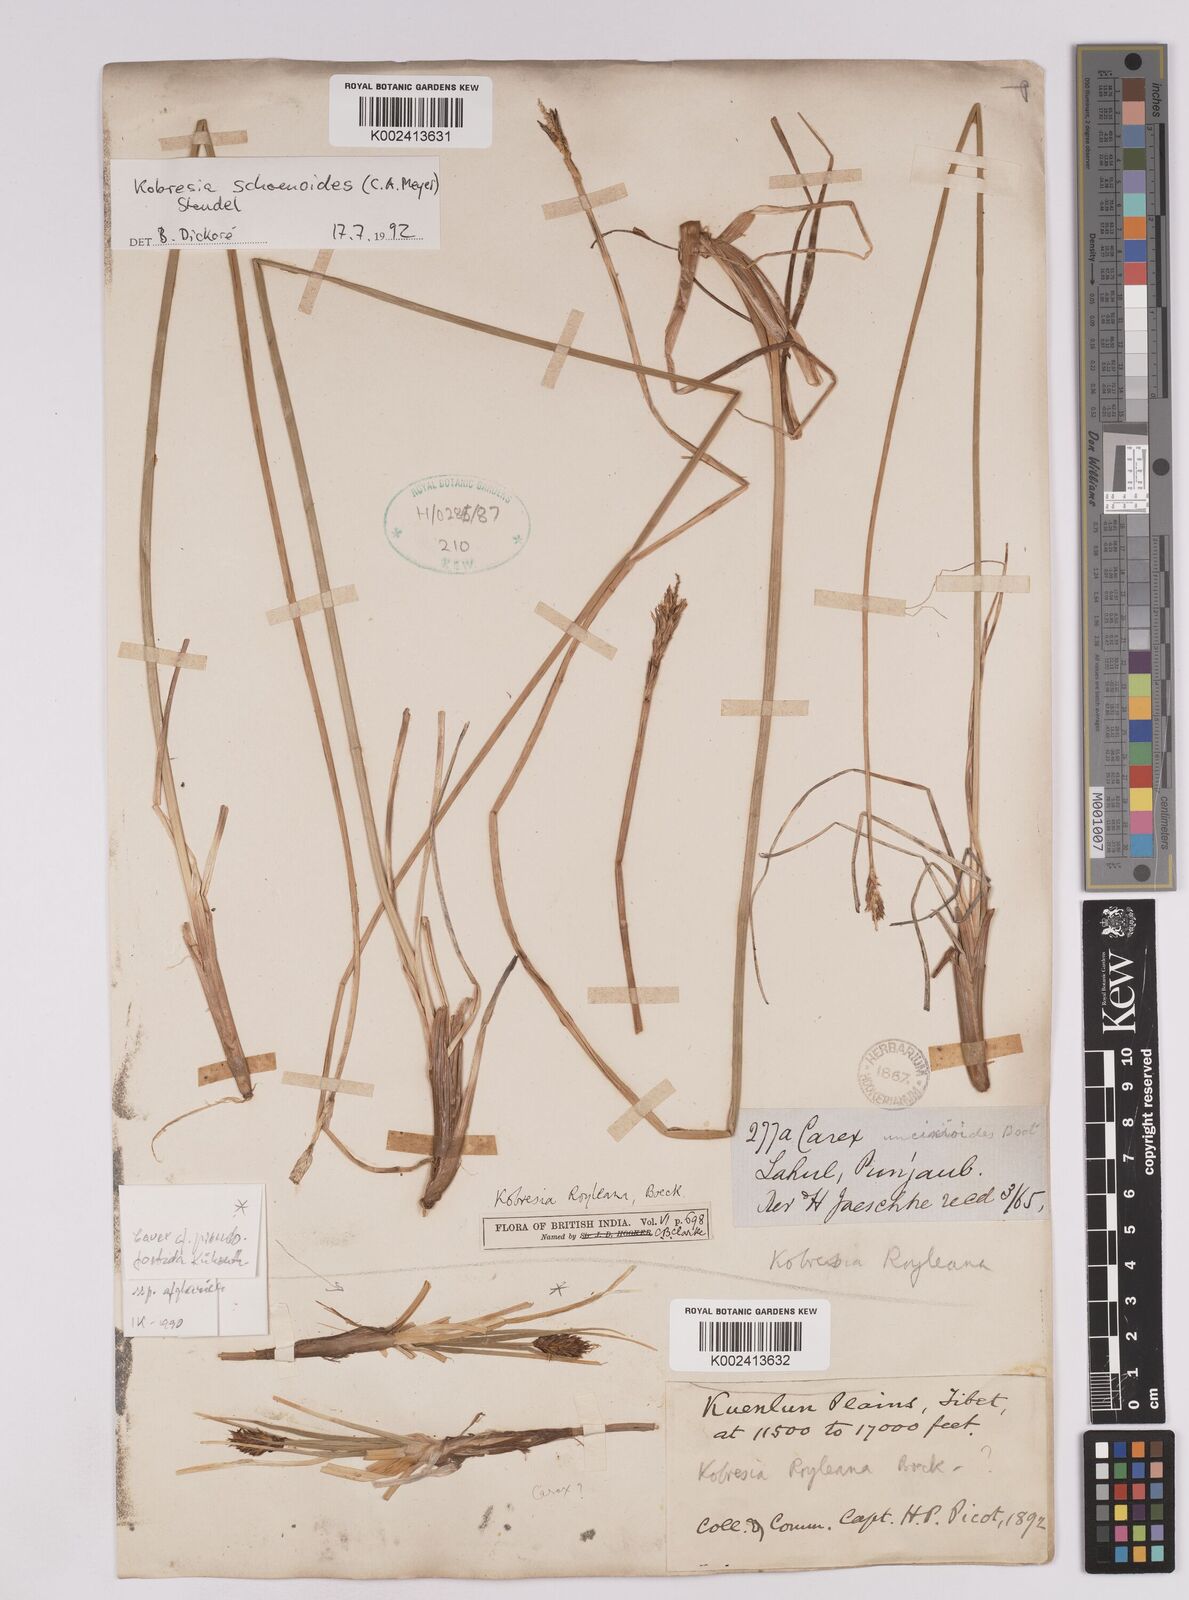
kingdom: Plantae
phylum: Tracheophyta
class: Liliopsida
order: Poales
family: Cyperaceae
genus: Carex
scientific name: Carex kokanica
